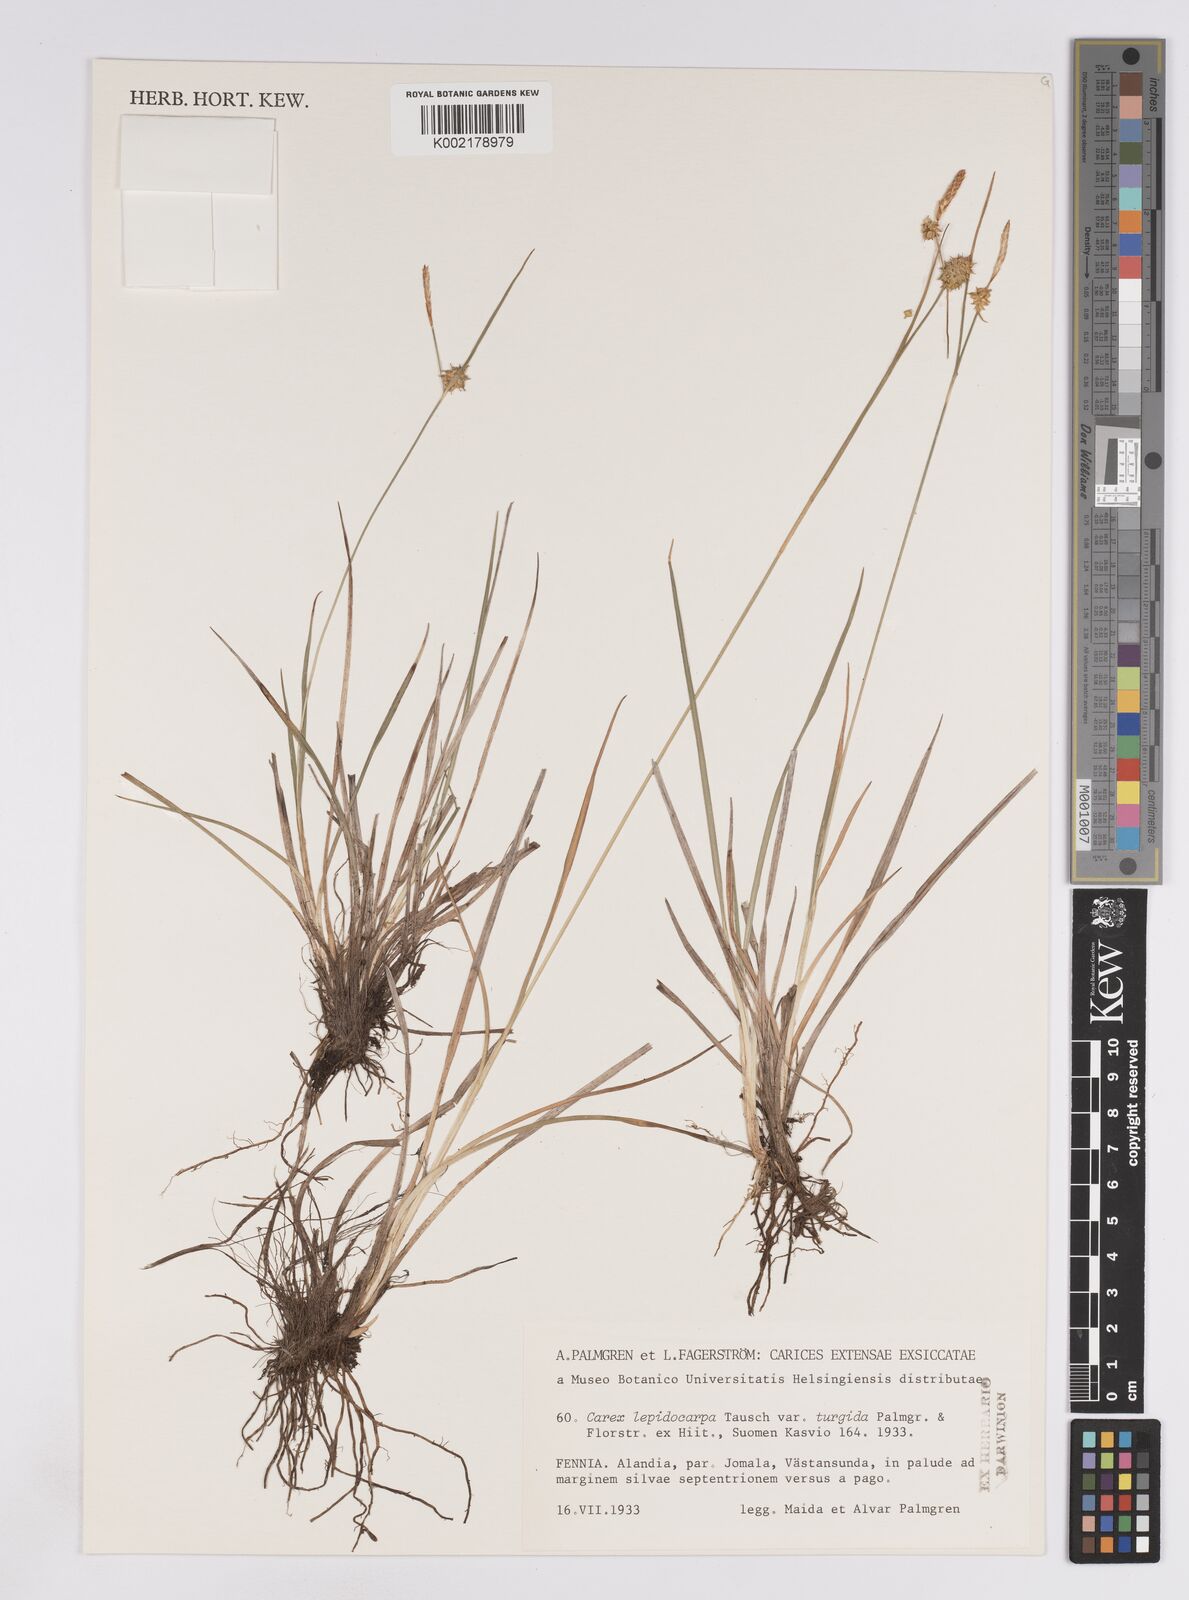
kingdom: Plantae
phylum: Tracheophyta
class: Liliopsida
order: Poales
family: Cyperaceae
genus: Carex
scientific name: Carex lepidocarpa
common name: Long-stalked yellow-sedge
